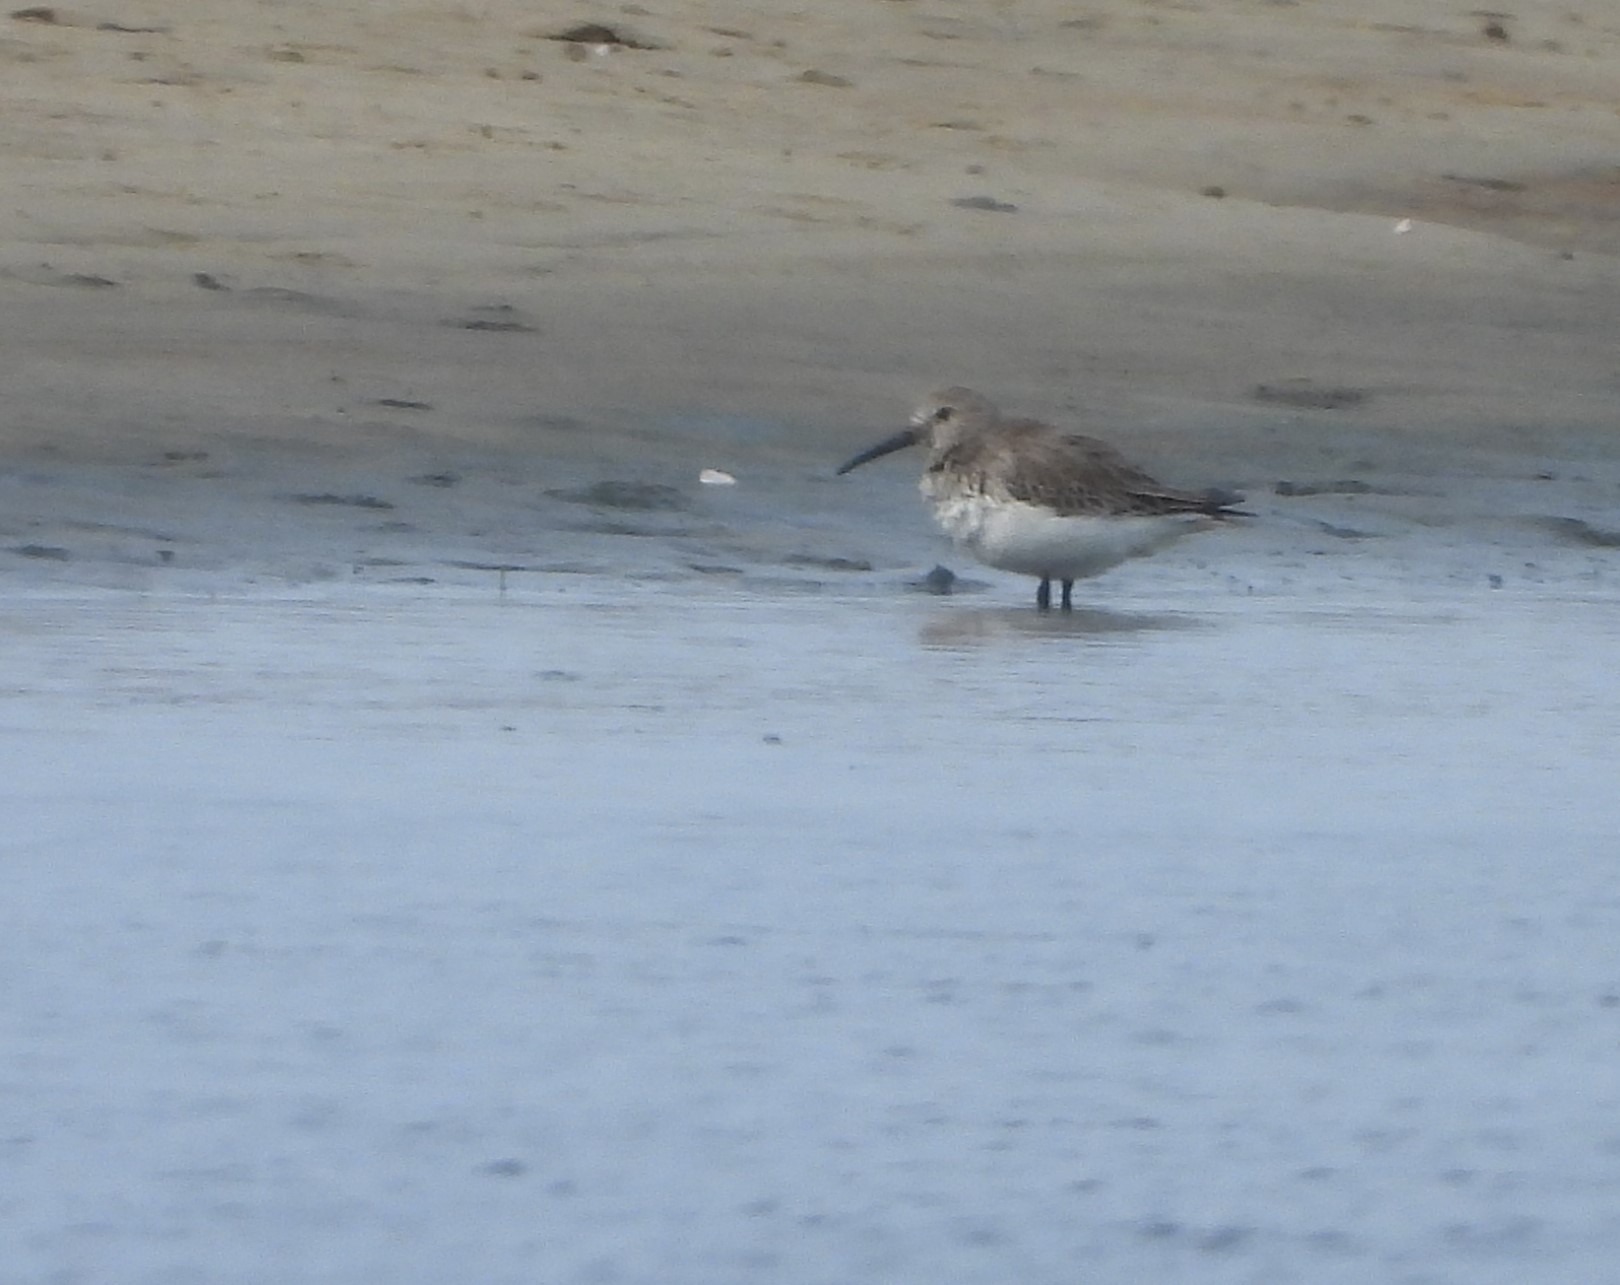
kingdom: Animalia
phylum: Chordata
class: Aves
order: Charadriiformes
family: Scolopacidae
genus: Calidris
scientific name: Calidris alpina
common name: Almindelig ryle
